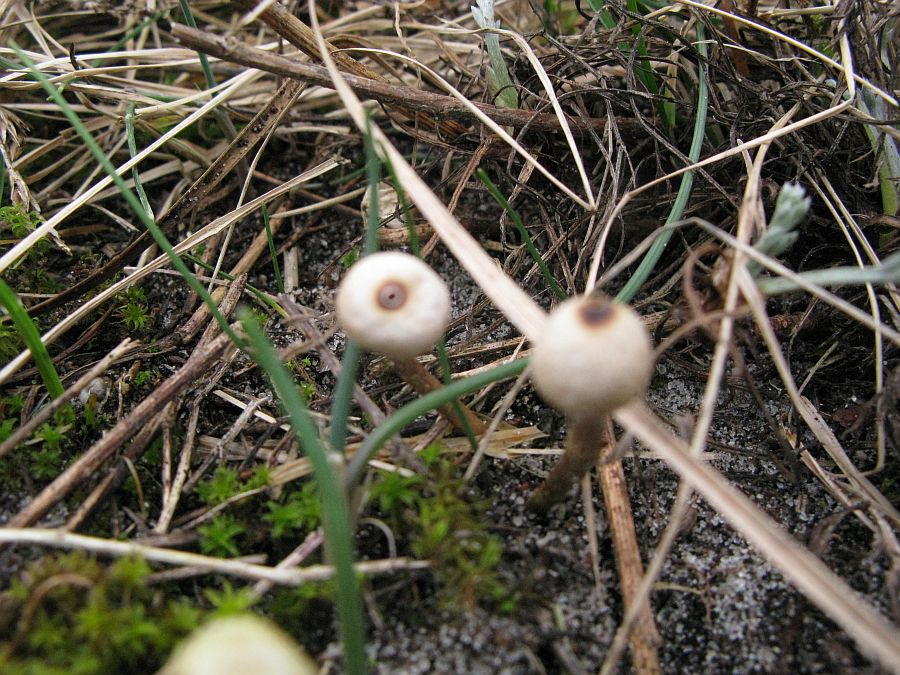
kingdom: Fungi
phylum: Basidiomycota
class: Agaricomycetes
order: Agaricales
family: Agaricaceae
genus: Tulostoma
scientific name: Tulostoma brumale
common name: vinter-stilkbovist
